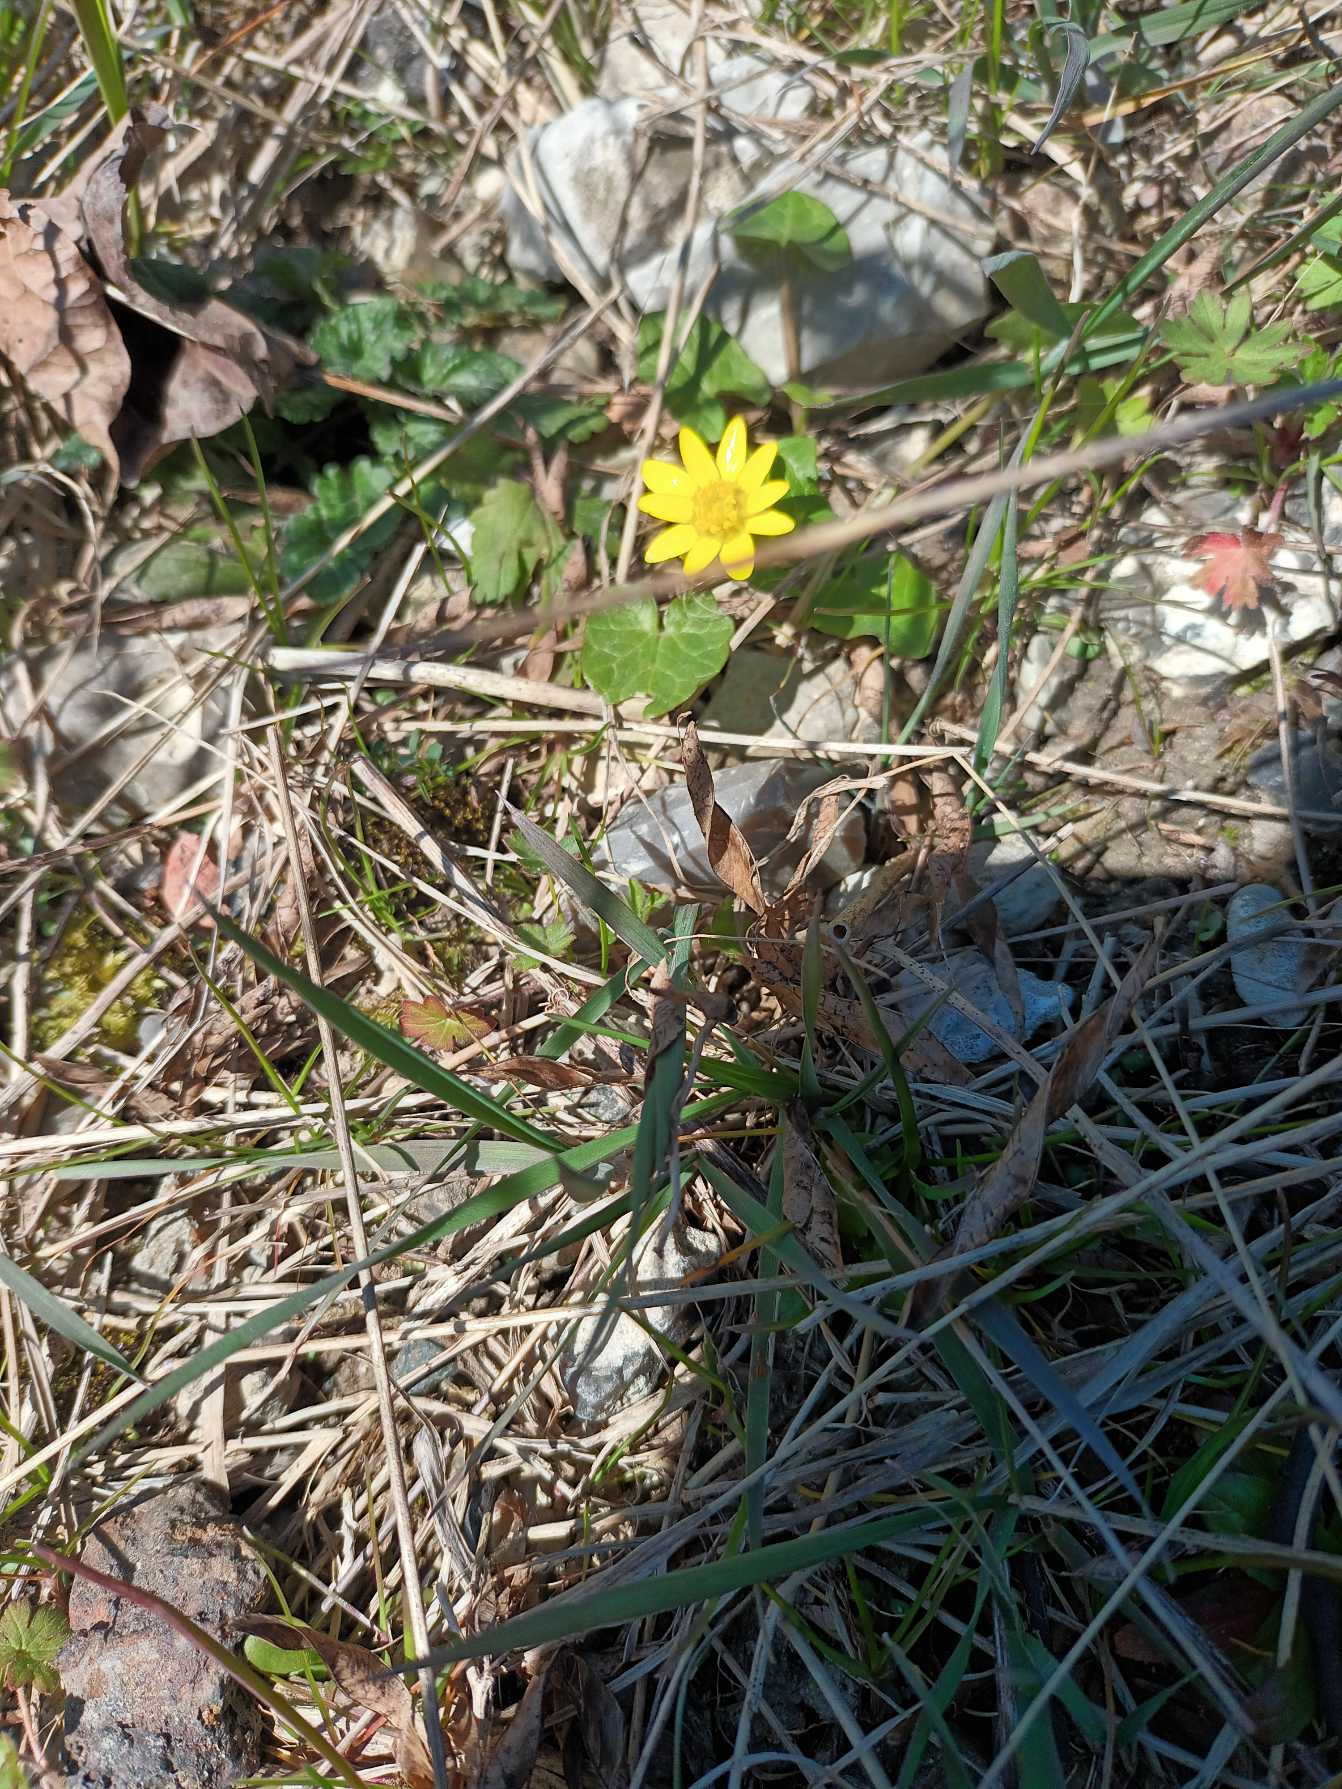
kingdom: Plantae
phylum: Tracheophyta
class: Magnoliopsida
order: Ranunculales
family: Ranunculaceae
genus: Ficaria
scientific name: Ficaria verna
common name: Vorterod
